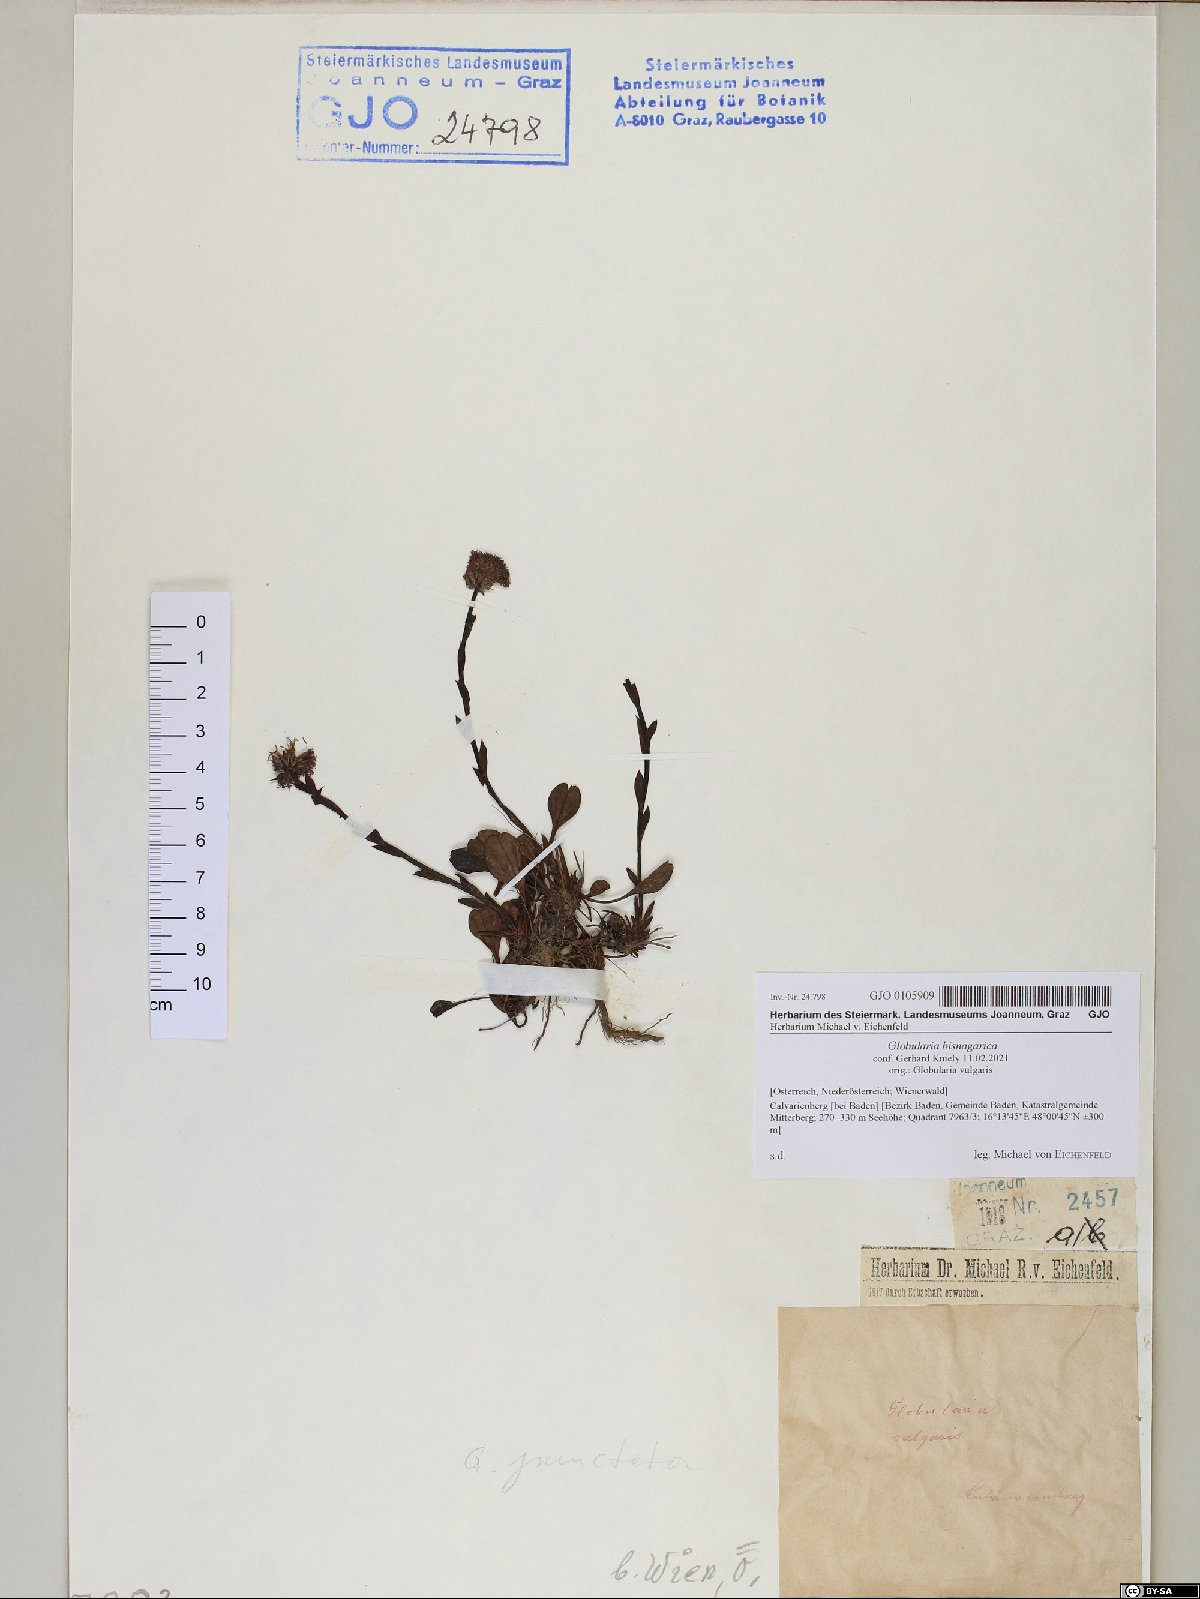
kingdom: Plantae
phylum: Tracheophyta
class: Magnoliopsida
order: Lamiales
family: Plantaginaceae
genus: Globularia
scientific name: Globularia bisnagarica
